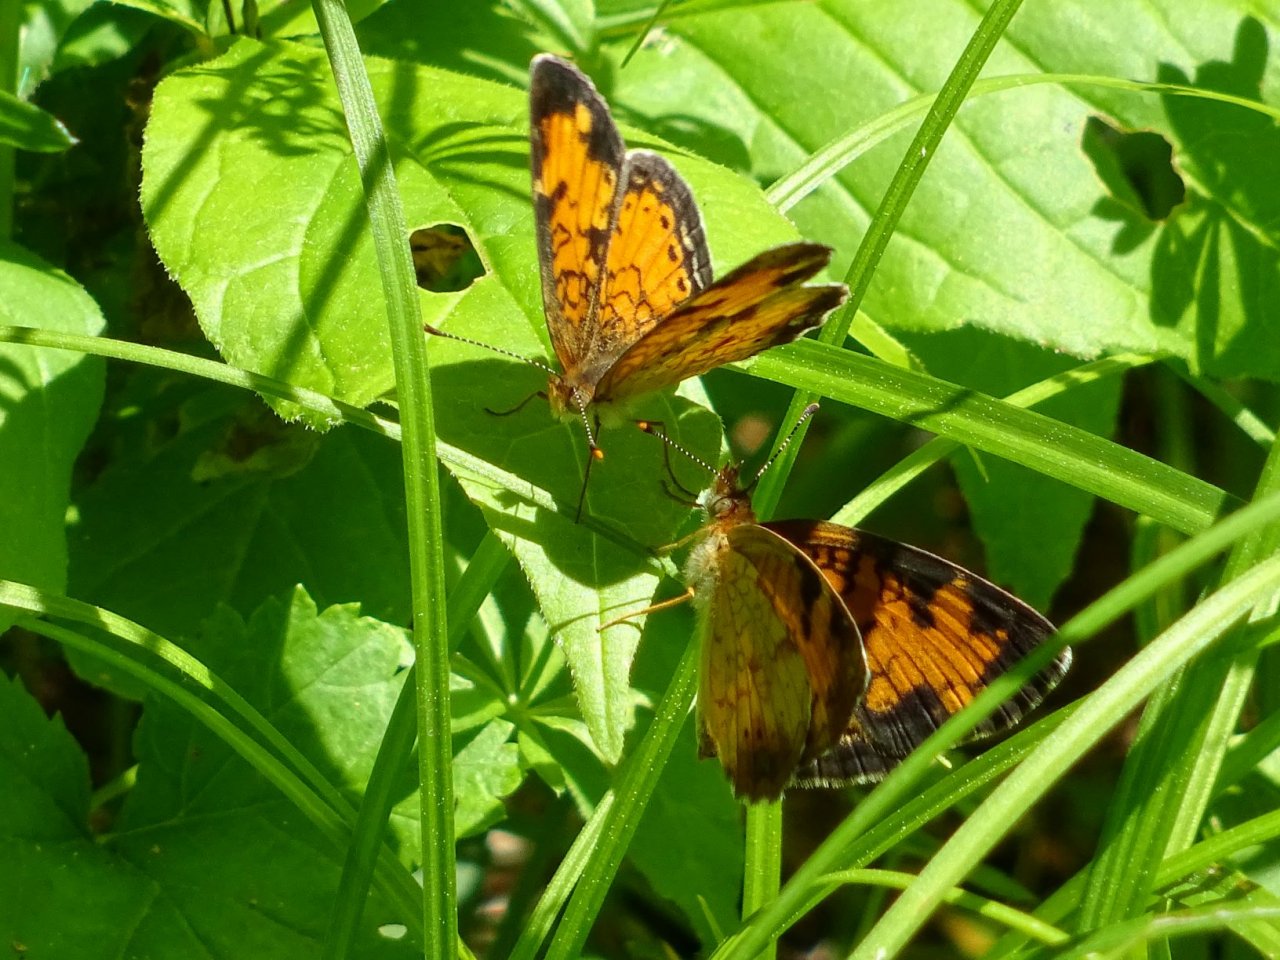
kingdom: Animalia
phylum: Arthropoda
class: Insecta
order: Lepidoptera
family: Nymphalidae
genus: Phyciodes
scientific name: Phyciodes tharos
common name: Northern Crescent
